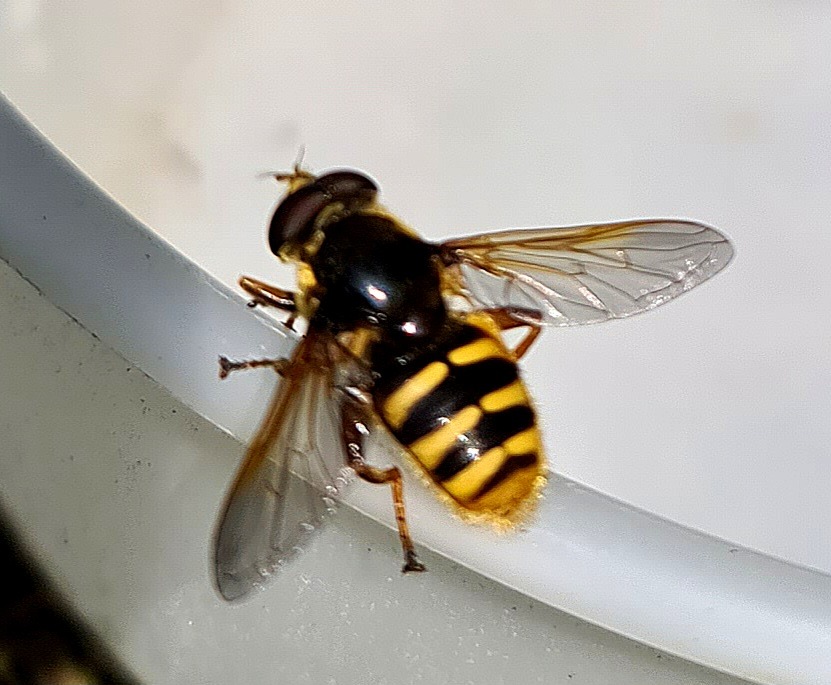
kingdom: Animalia
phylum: Arthropoda
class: Insecta
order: Diptera
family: Syrphidae
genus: Sericomyia
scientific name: Sericomyia silentis
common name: Tørve-silkesvirreflue
